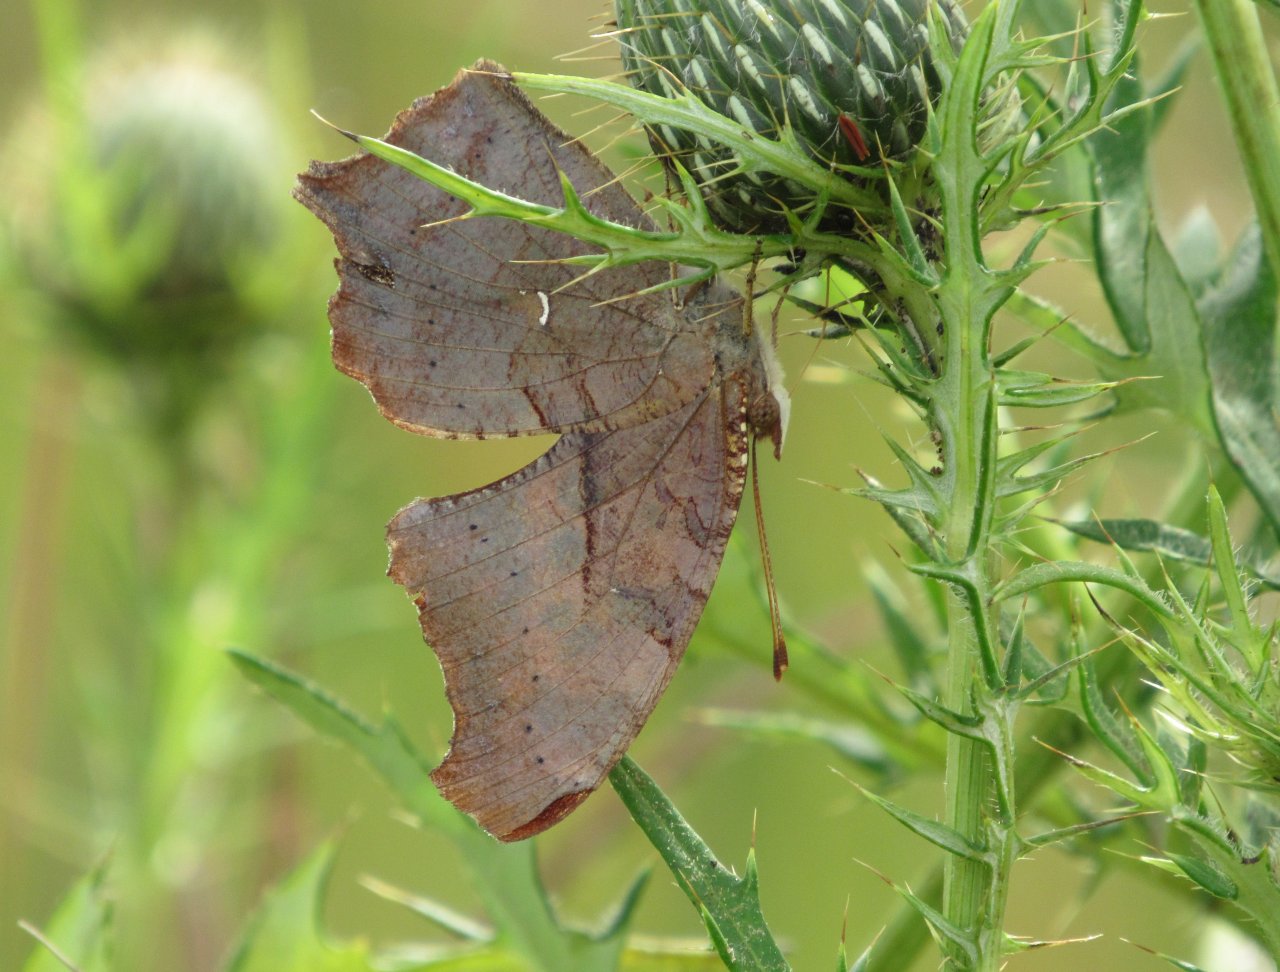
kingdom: Animalia
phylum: Arthropoda
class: Insecta
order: Lepidoptera
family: Nymphalidae
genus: Polygonia
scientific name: Polygonia interrogationis
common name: Question Mark
